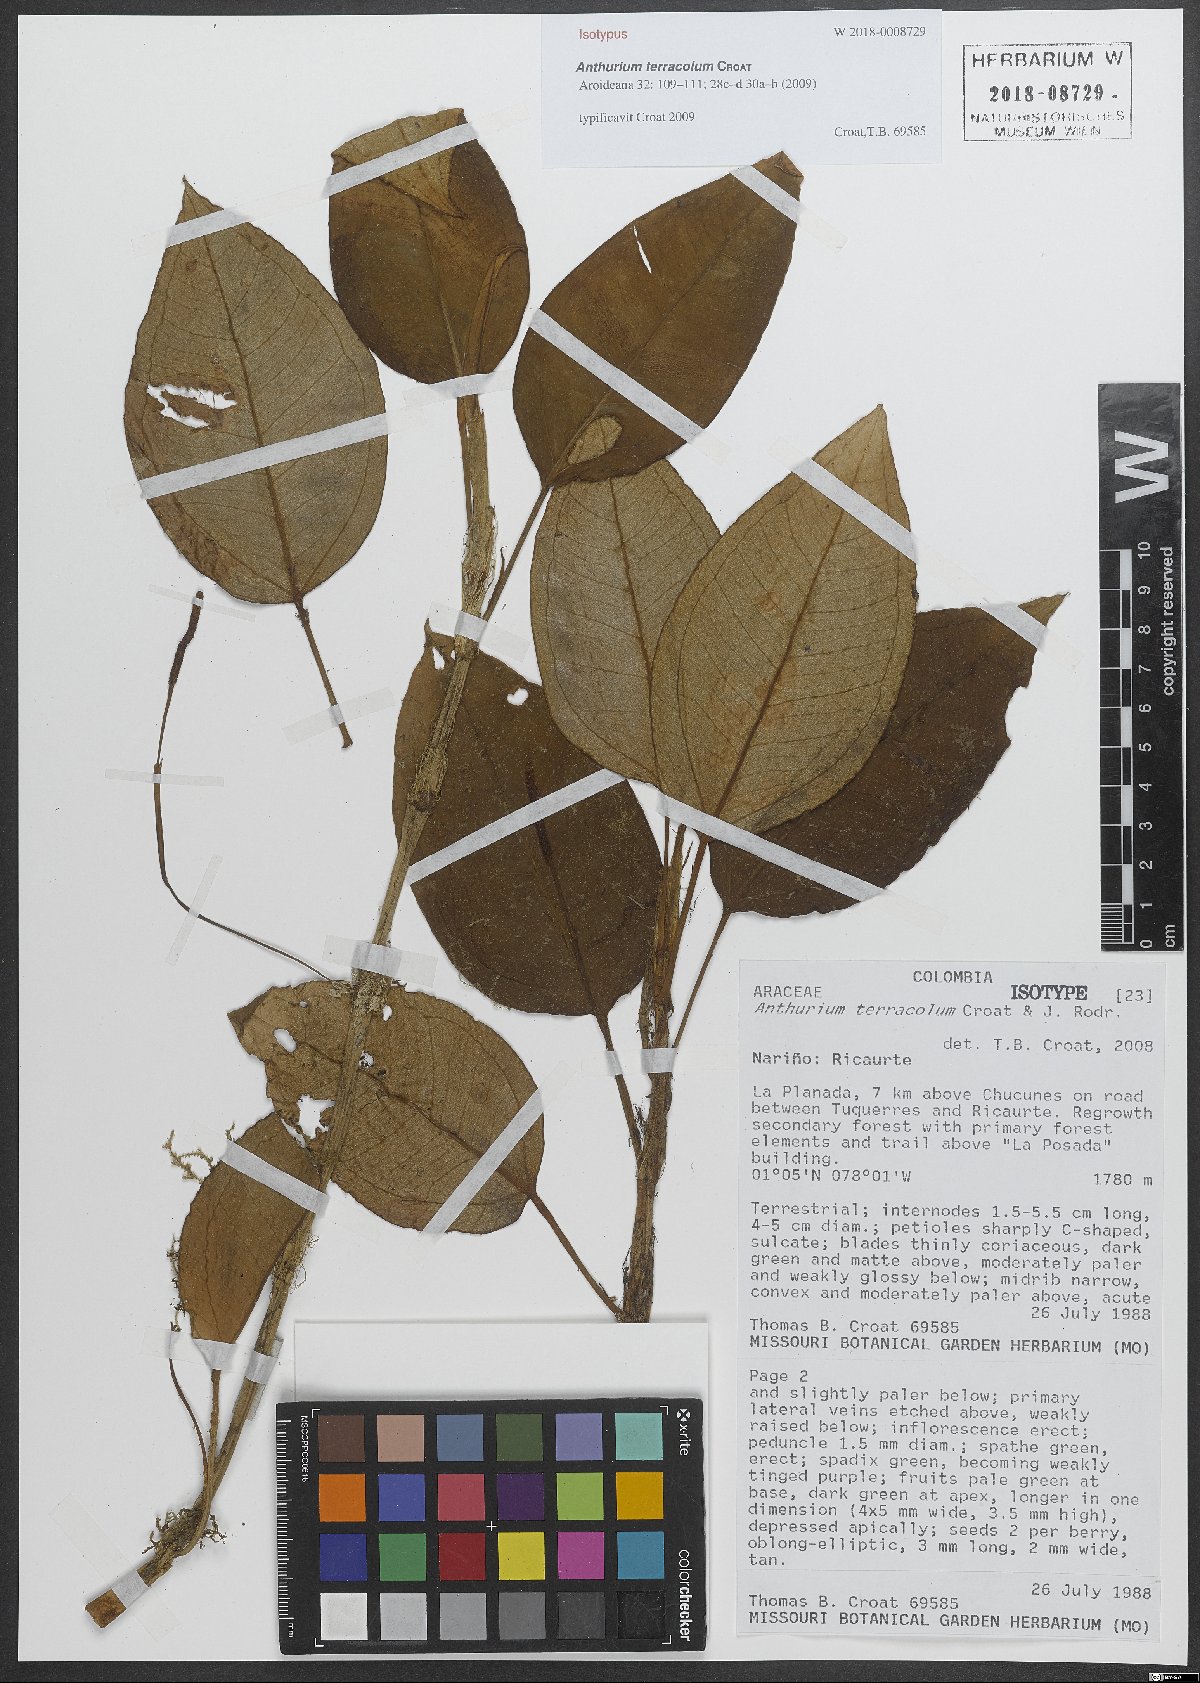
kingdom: Plantae
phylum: Tracheophyta
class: Liliopsida
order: Alismatales
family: Araceae
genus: Anthurium
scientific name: Anthurium terracola
